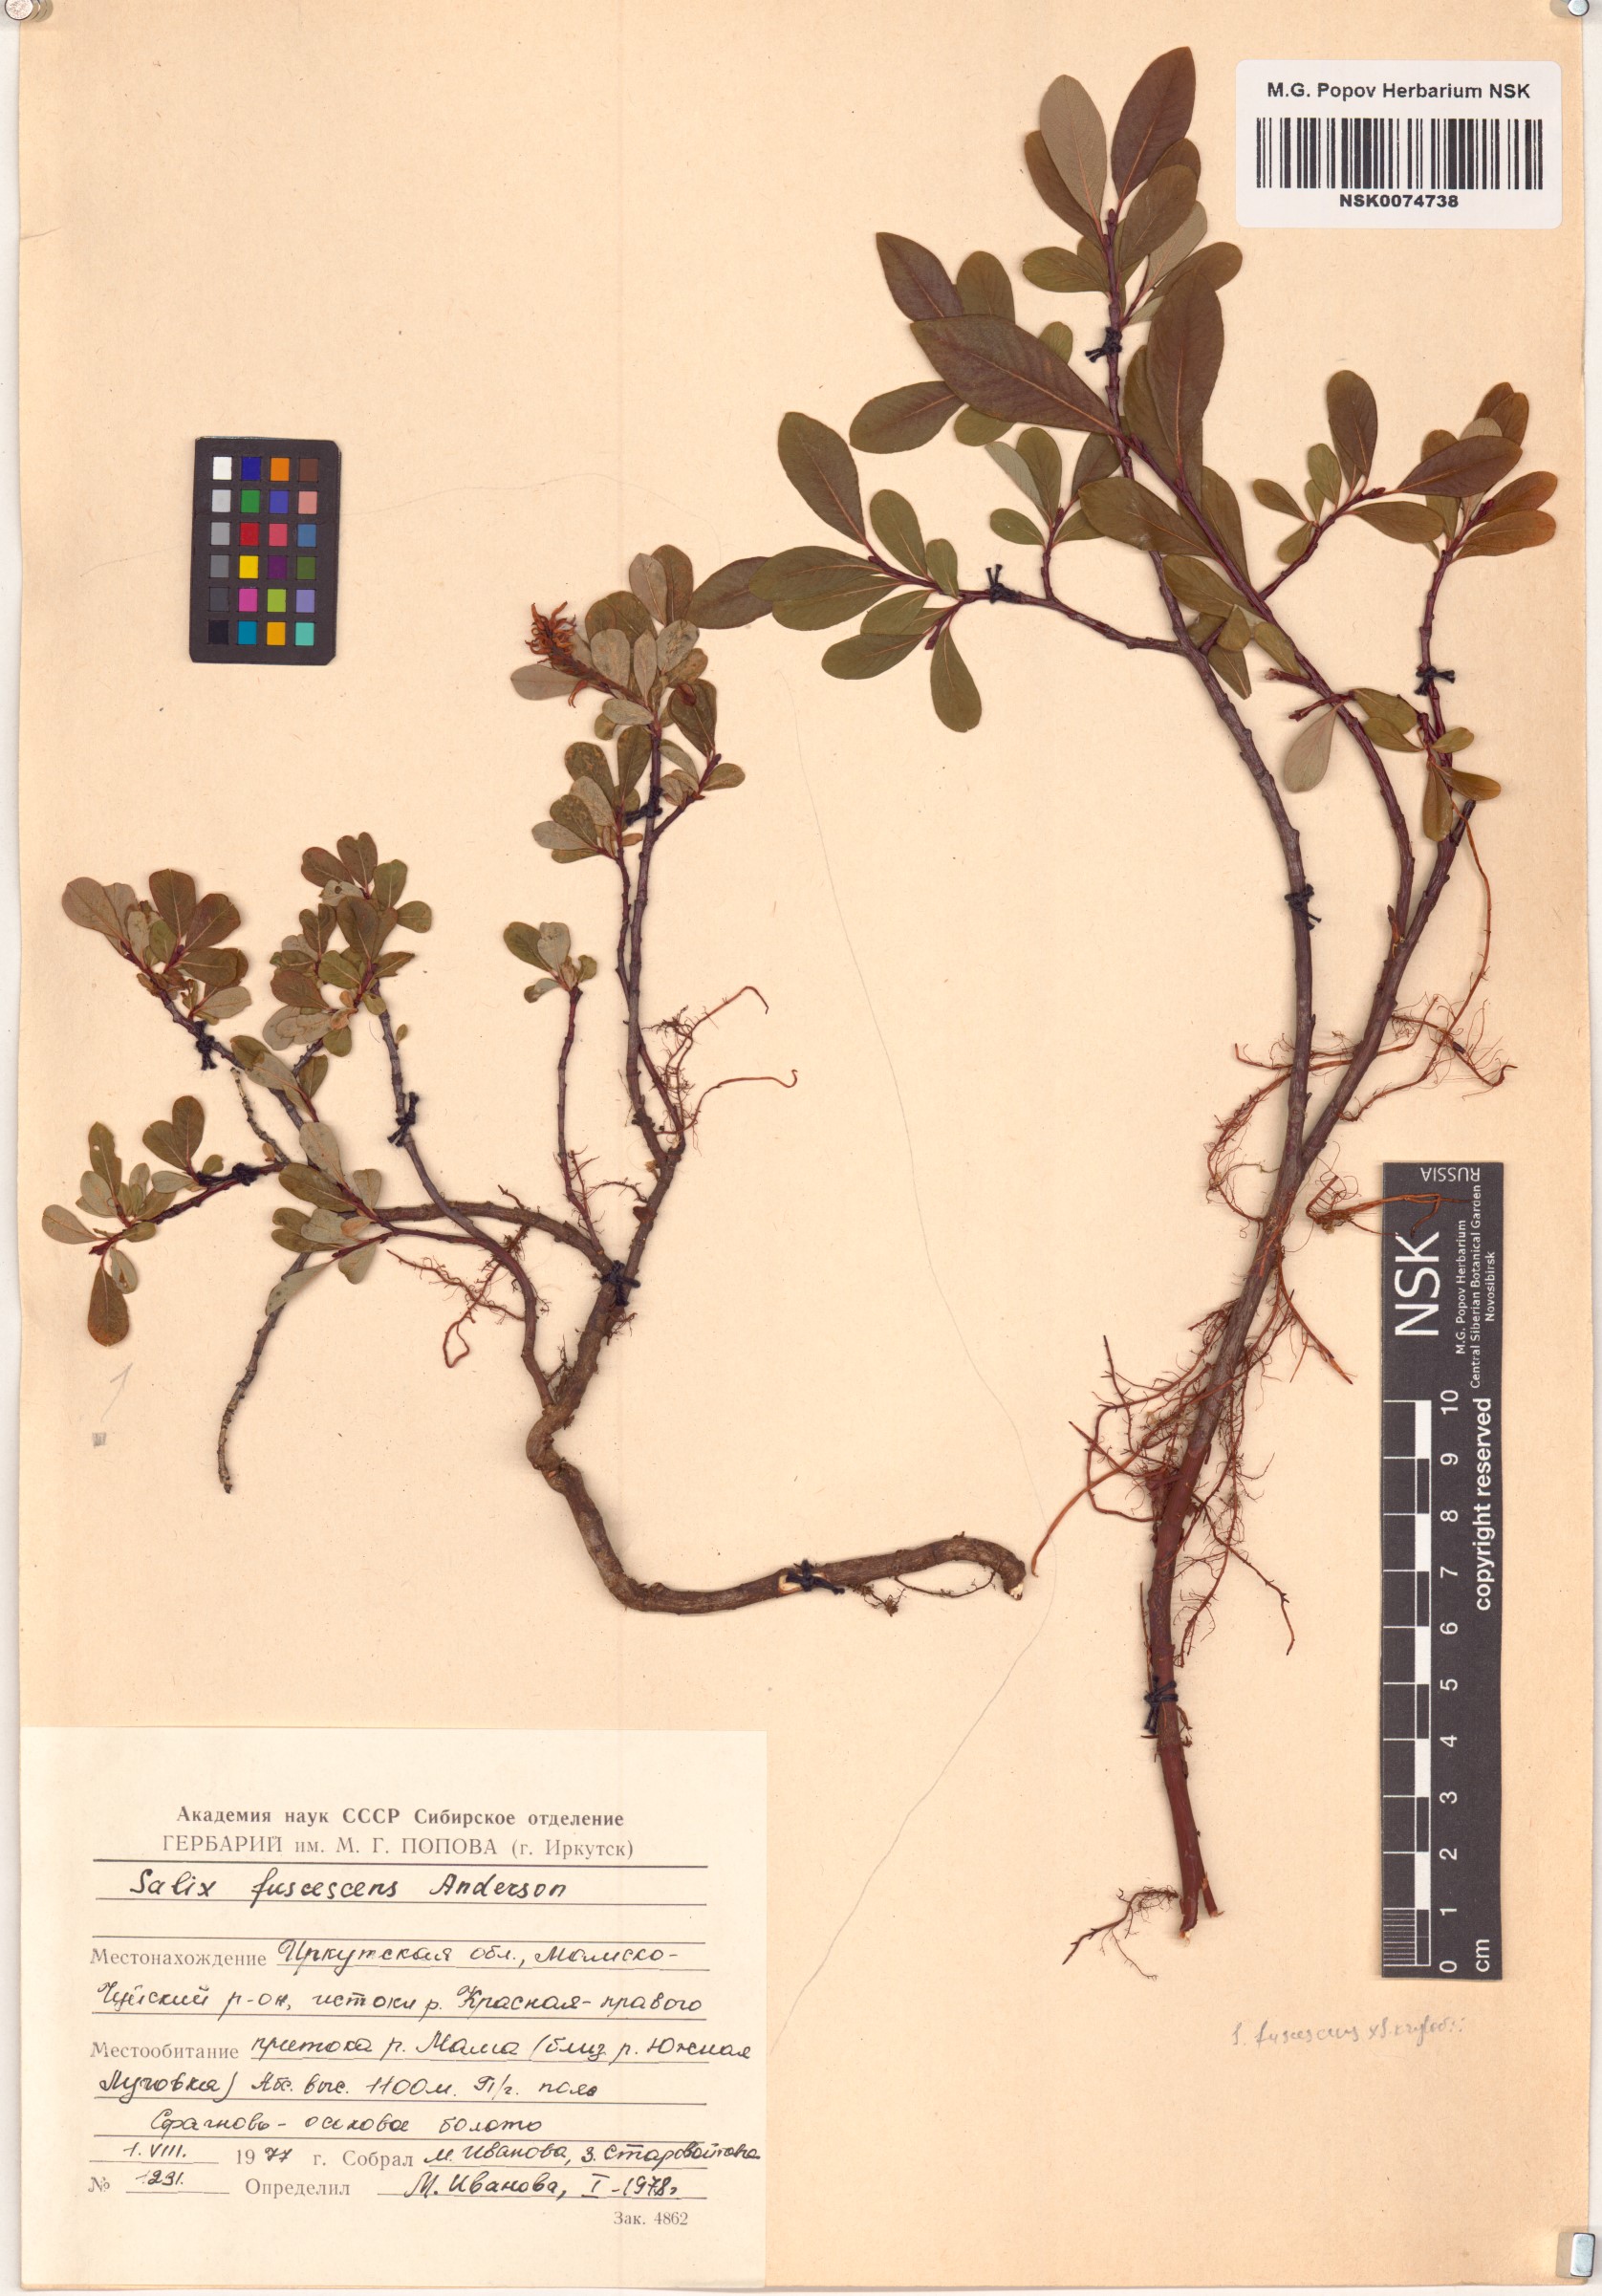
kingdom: Plantae
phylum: Tracheophyta
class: Magnoliopsida
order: Malpighiales
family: Salicaceae
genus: Salix
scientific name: Salix fuscescens
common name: Brownish willow
